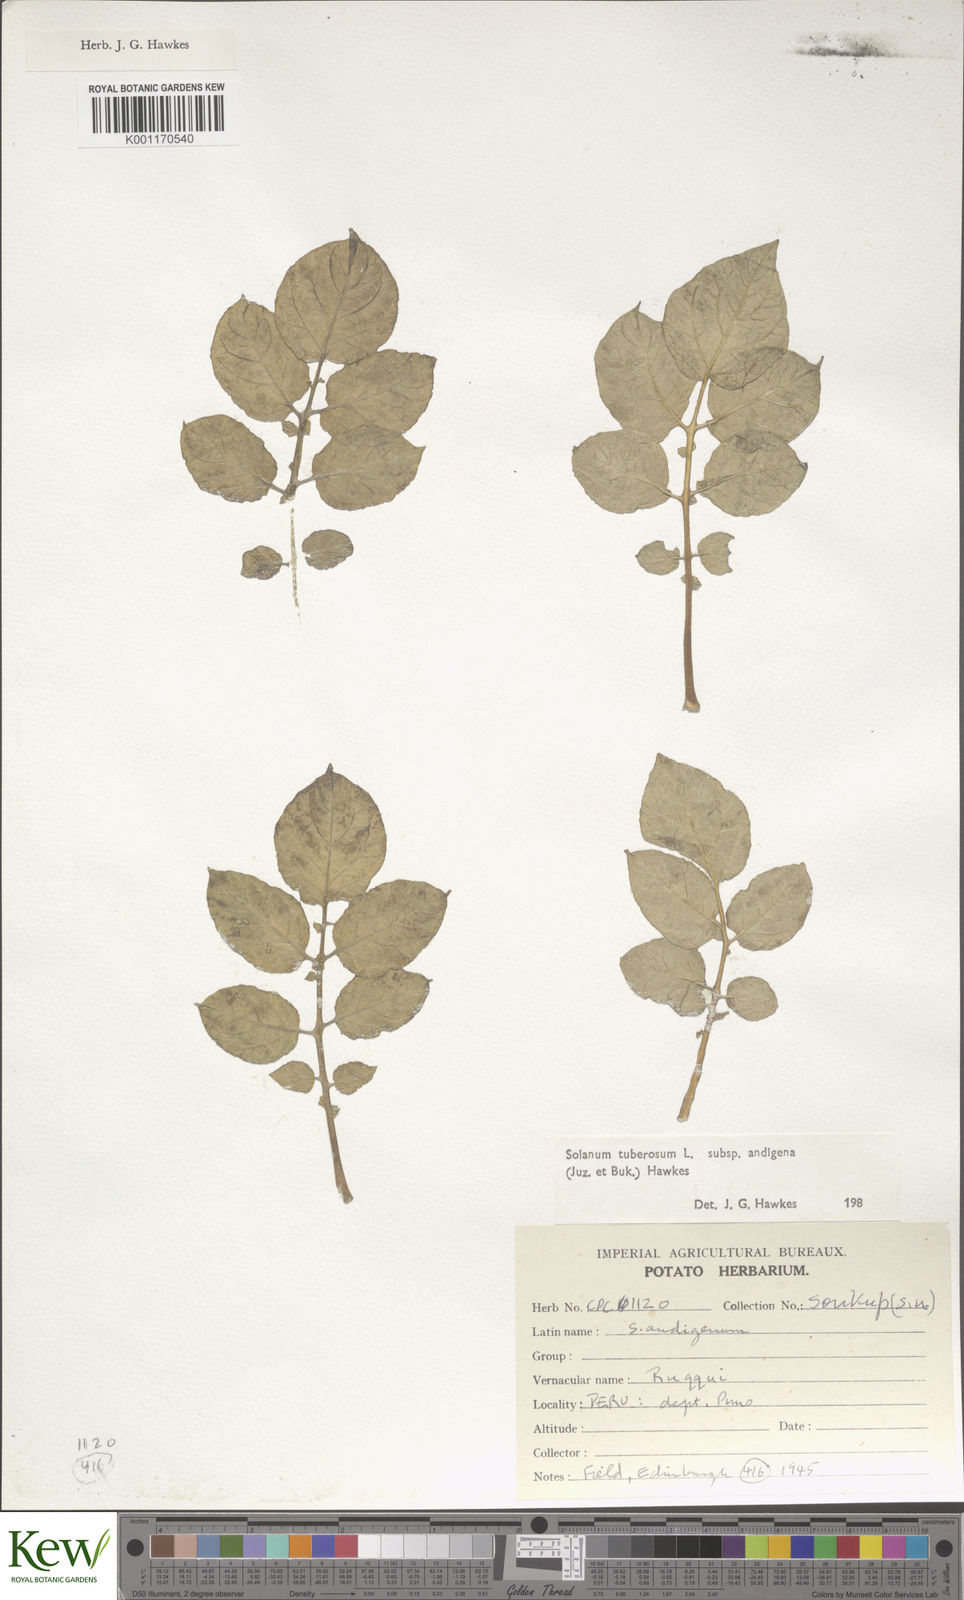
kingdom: Plantae
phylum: Tracheophyta
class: Magnoliopsida
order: Solanales
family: Solanaceae
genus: Solanum
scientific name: Solanum tuberosum
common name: Potato
